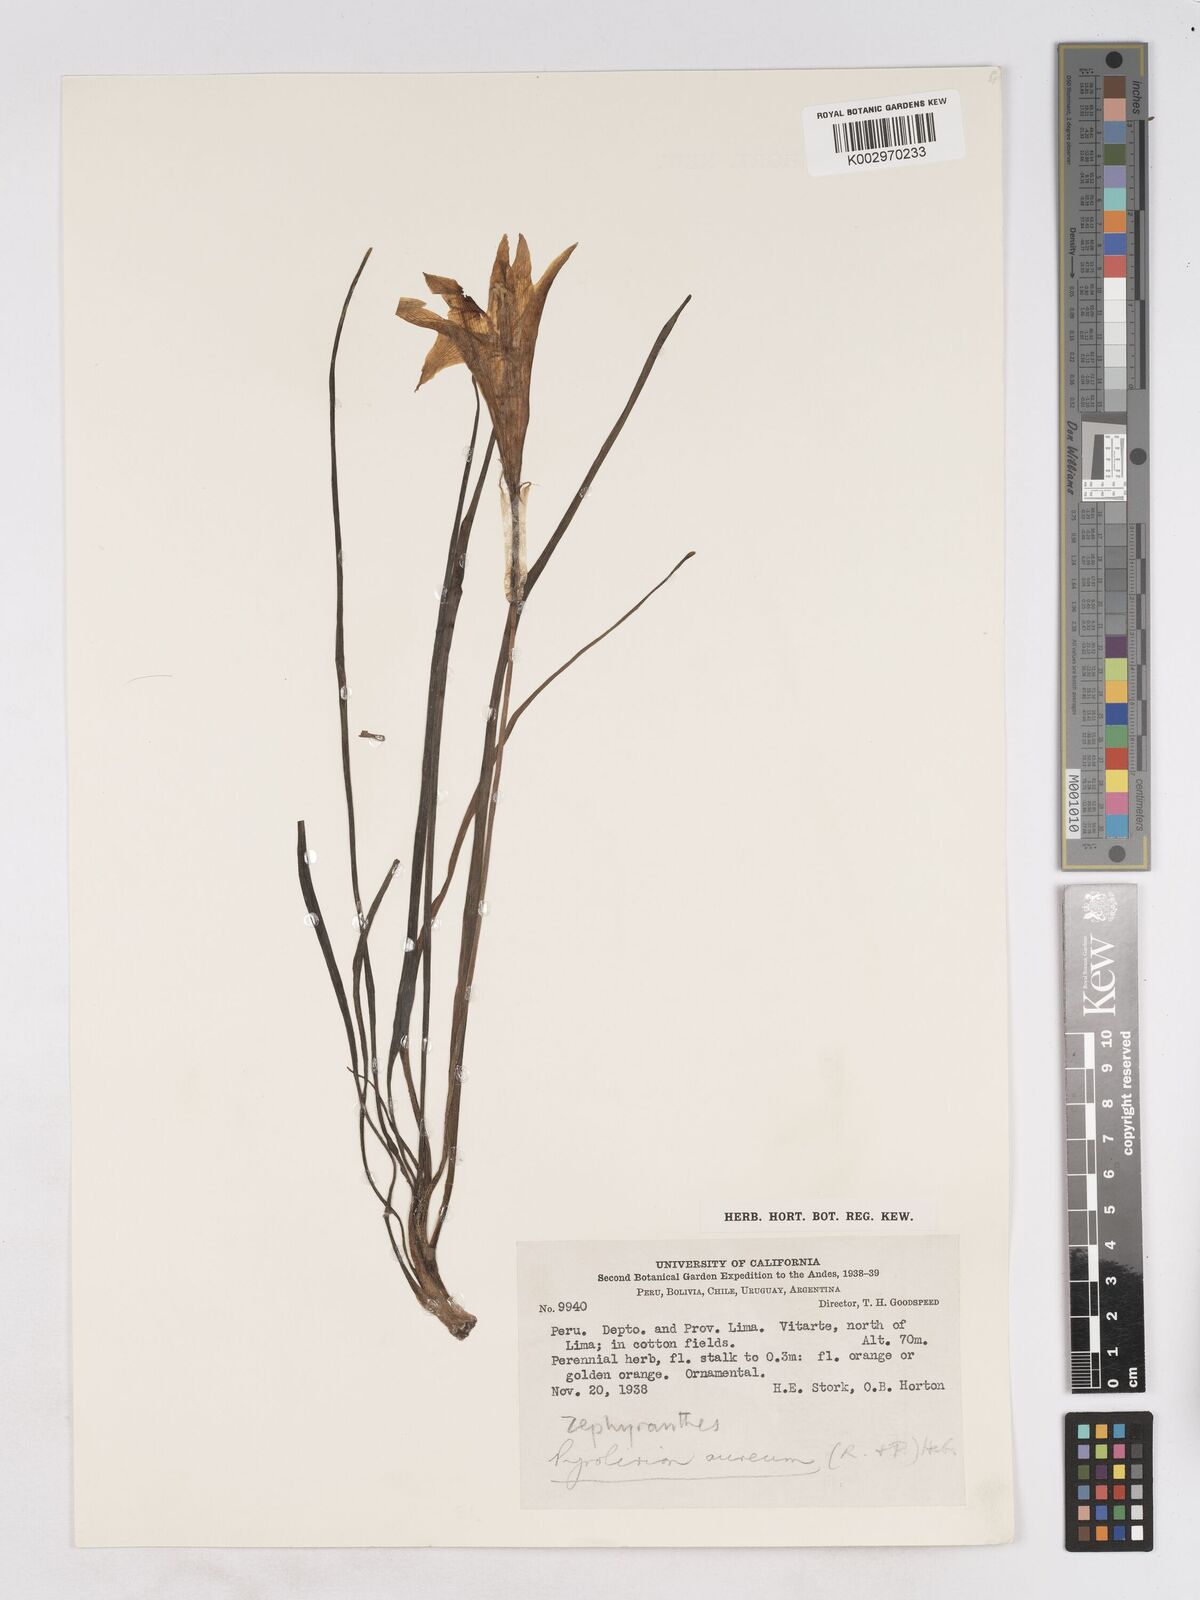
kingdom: Plantae
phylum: Tracheophyta
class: Liliopsida
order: Asparagales
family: Amaryllidaceae
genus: Pyrolirion
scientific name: Pyrolirion tubiflorum
